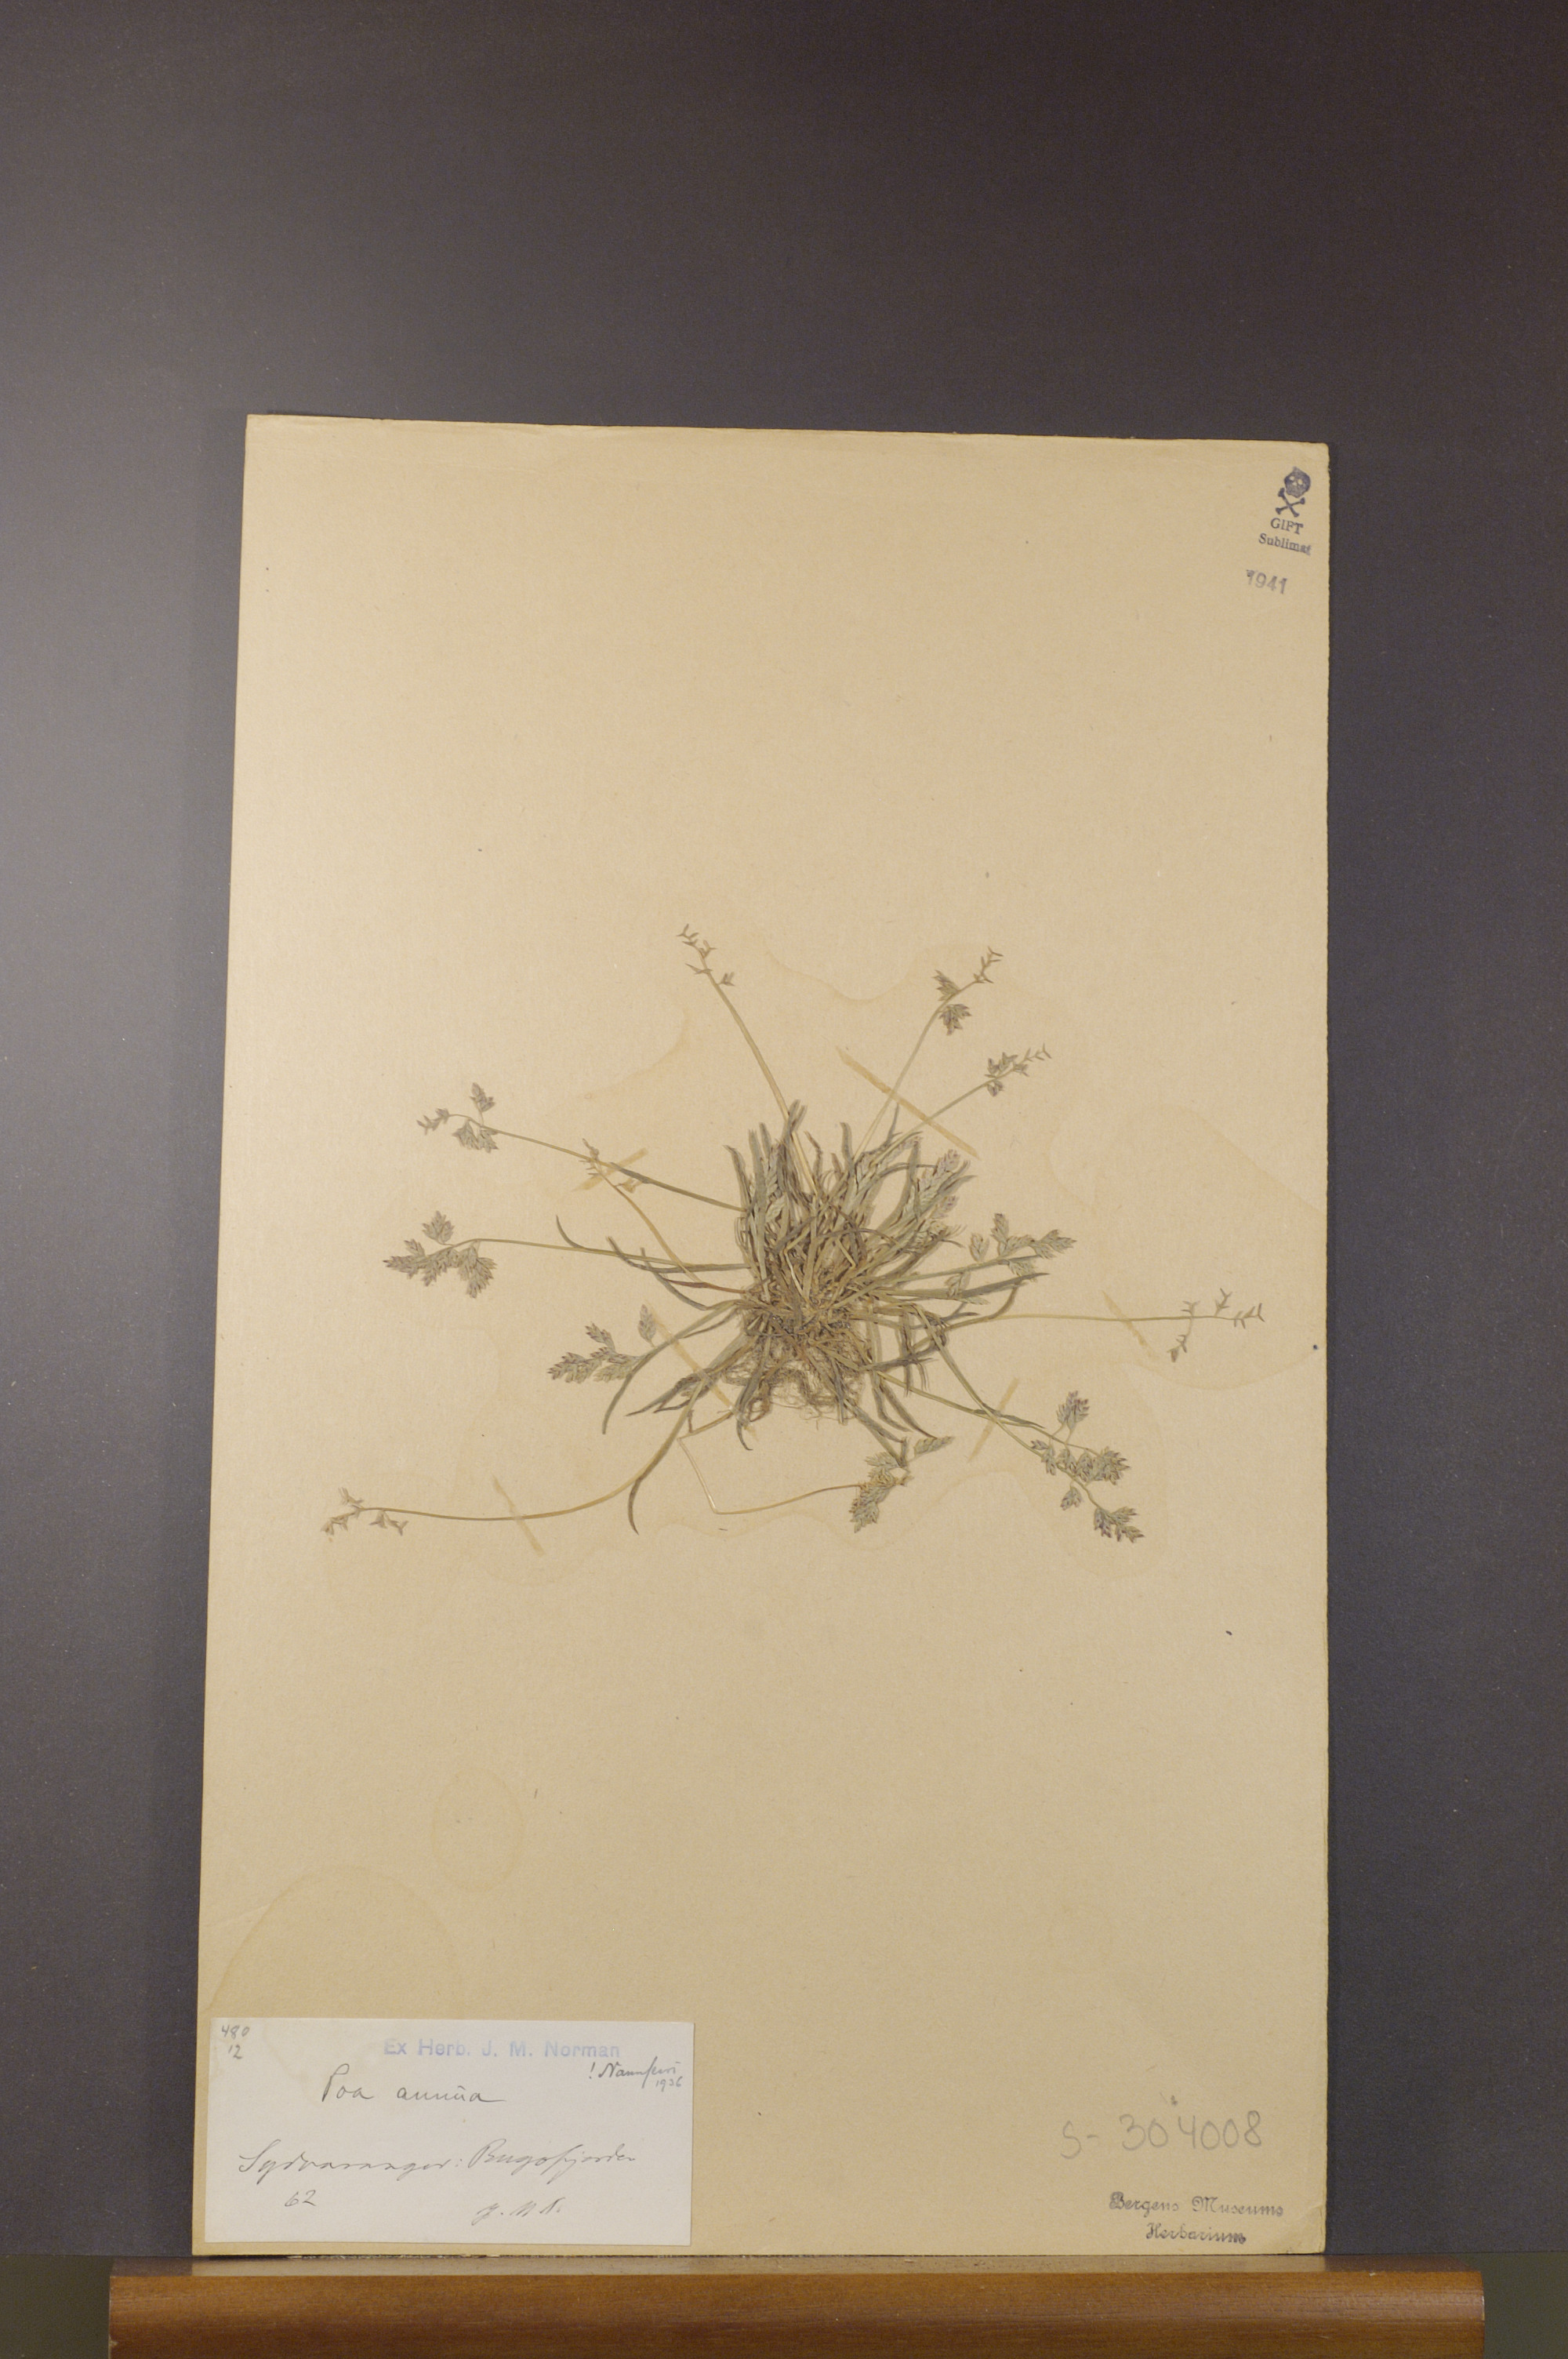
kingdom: Plantae
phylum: Tracheophyta
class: Liliopsida
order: Poales
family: Poaceae
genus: Poa
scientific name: Poa annua
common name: Annual bluegrass
